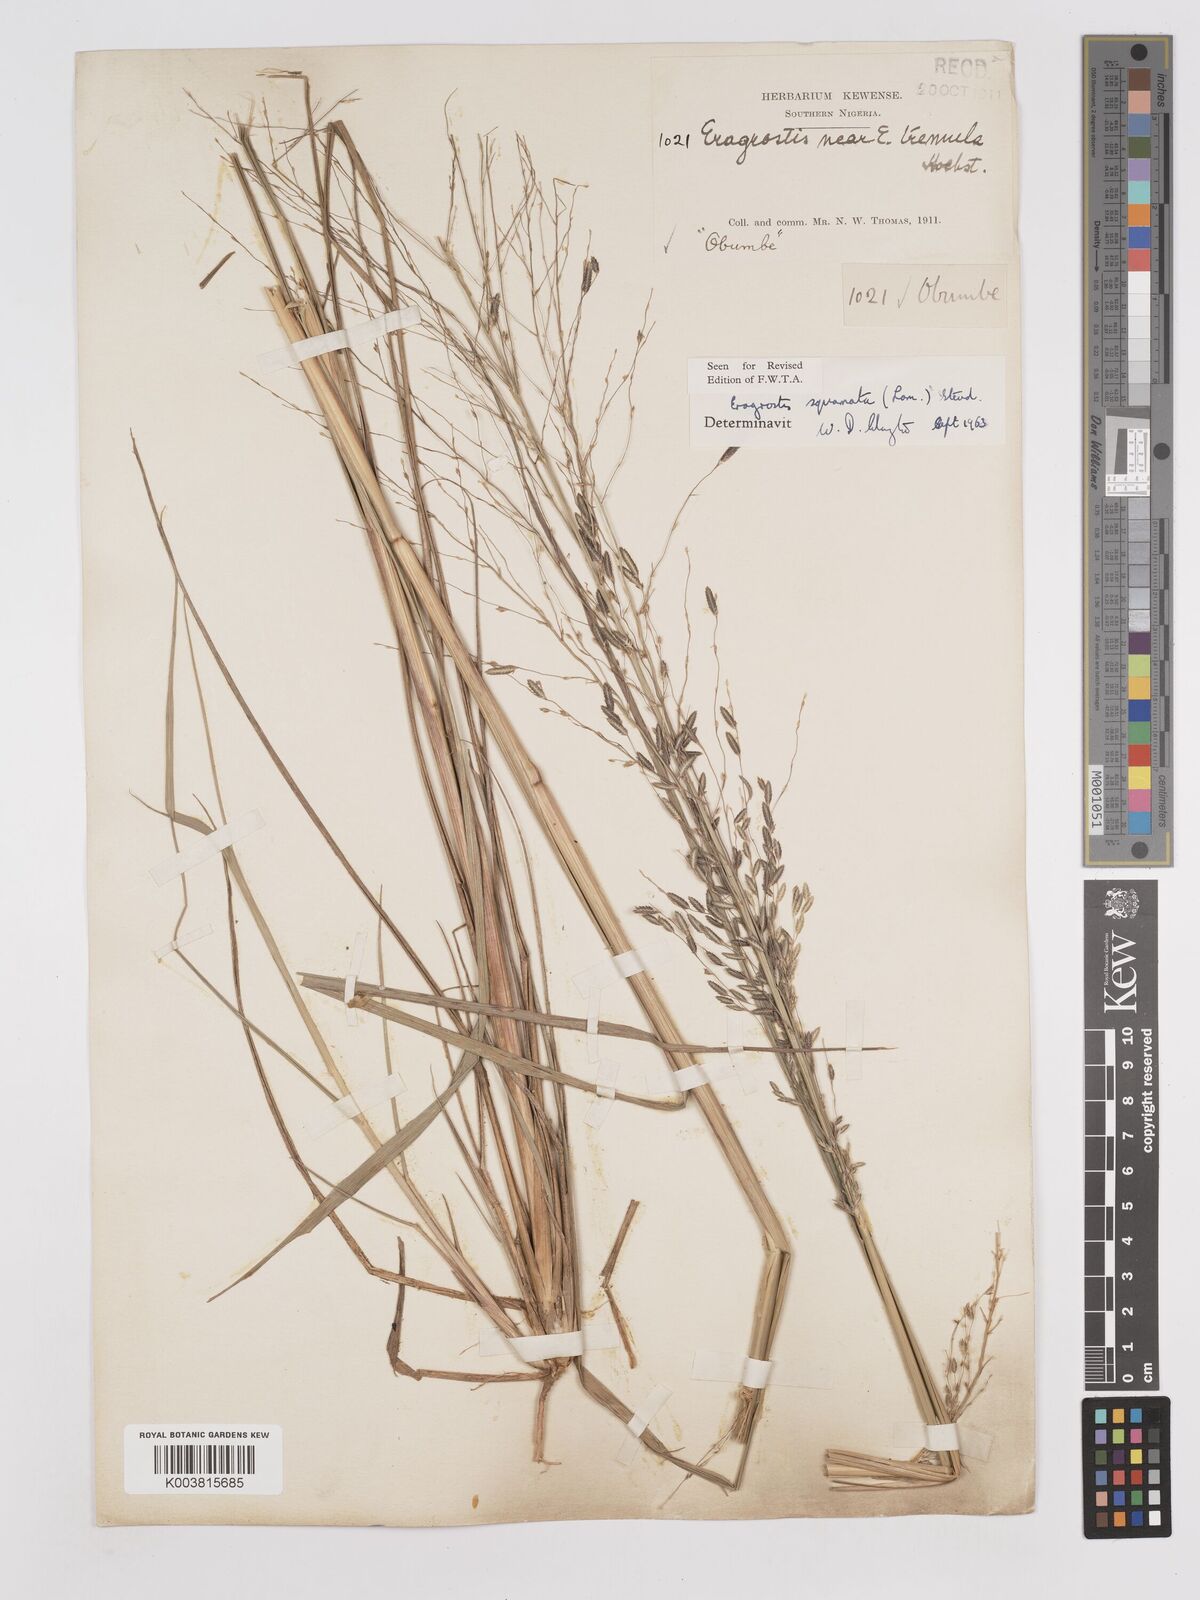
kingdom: Plantae
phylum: Tracheophyta
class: Liliopsida
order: Poales
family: Poaceae
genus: Eragrostis
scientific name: Eragrostis squamata
